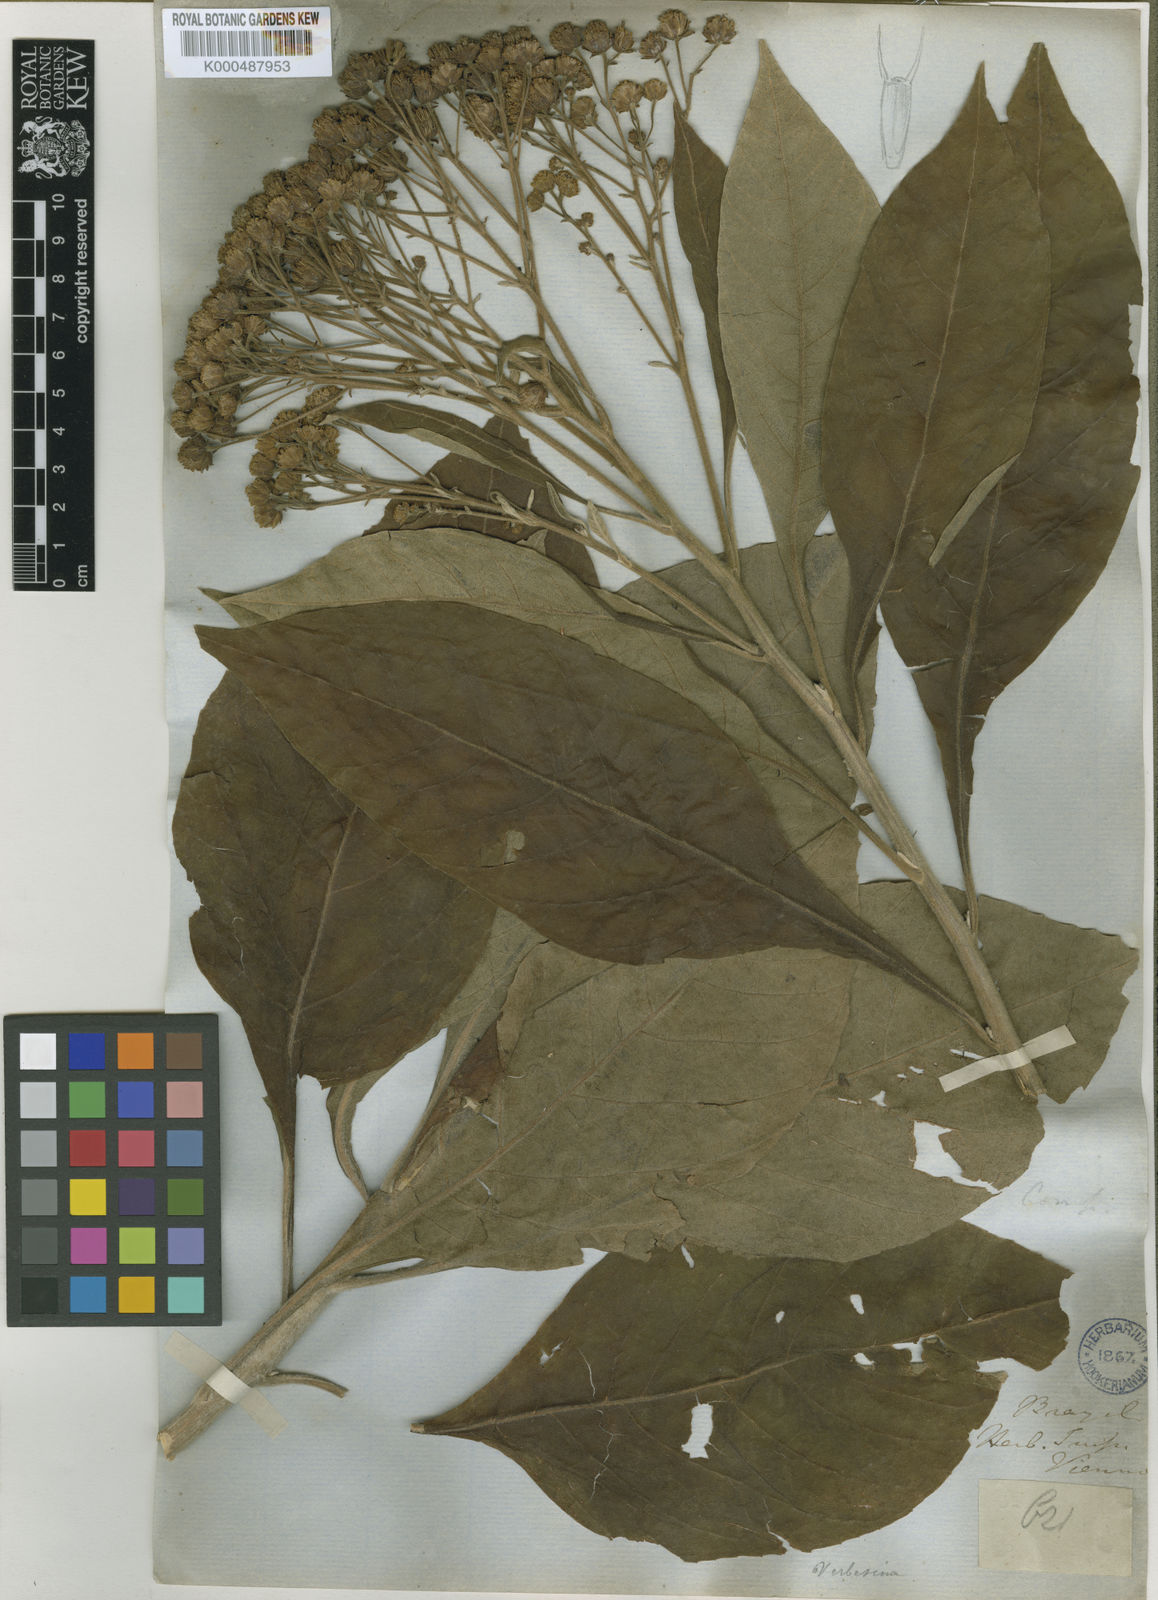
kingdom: Plantae
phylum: Tracheophyta
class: Magnoliopsida
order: Asterales
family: Asteraceae
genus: Verbesina
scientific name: Verbesina nicotianifolia
